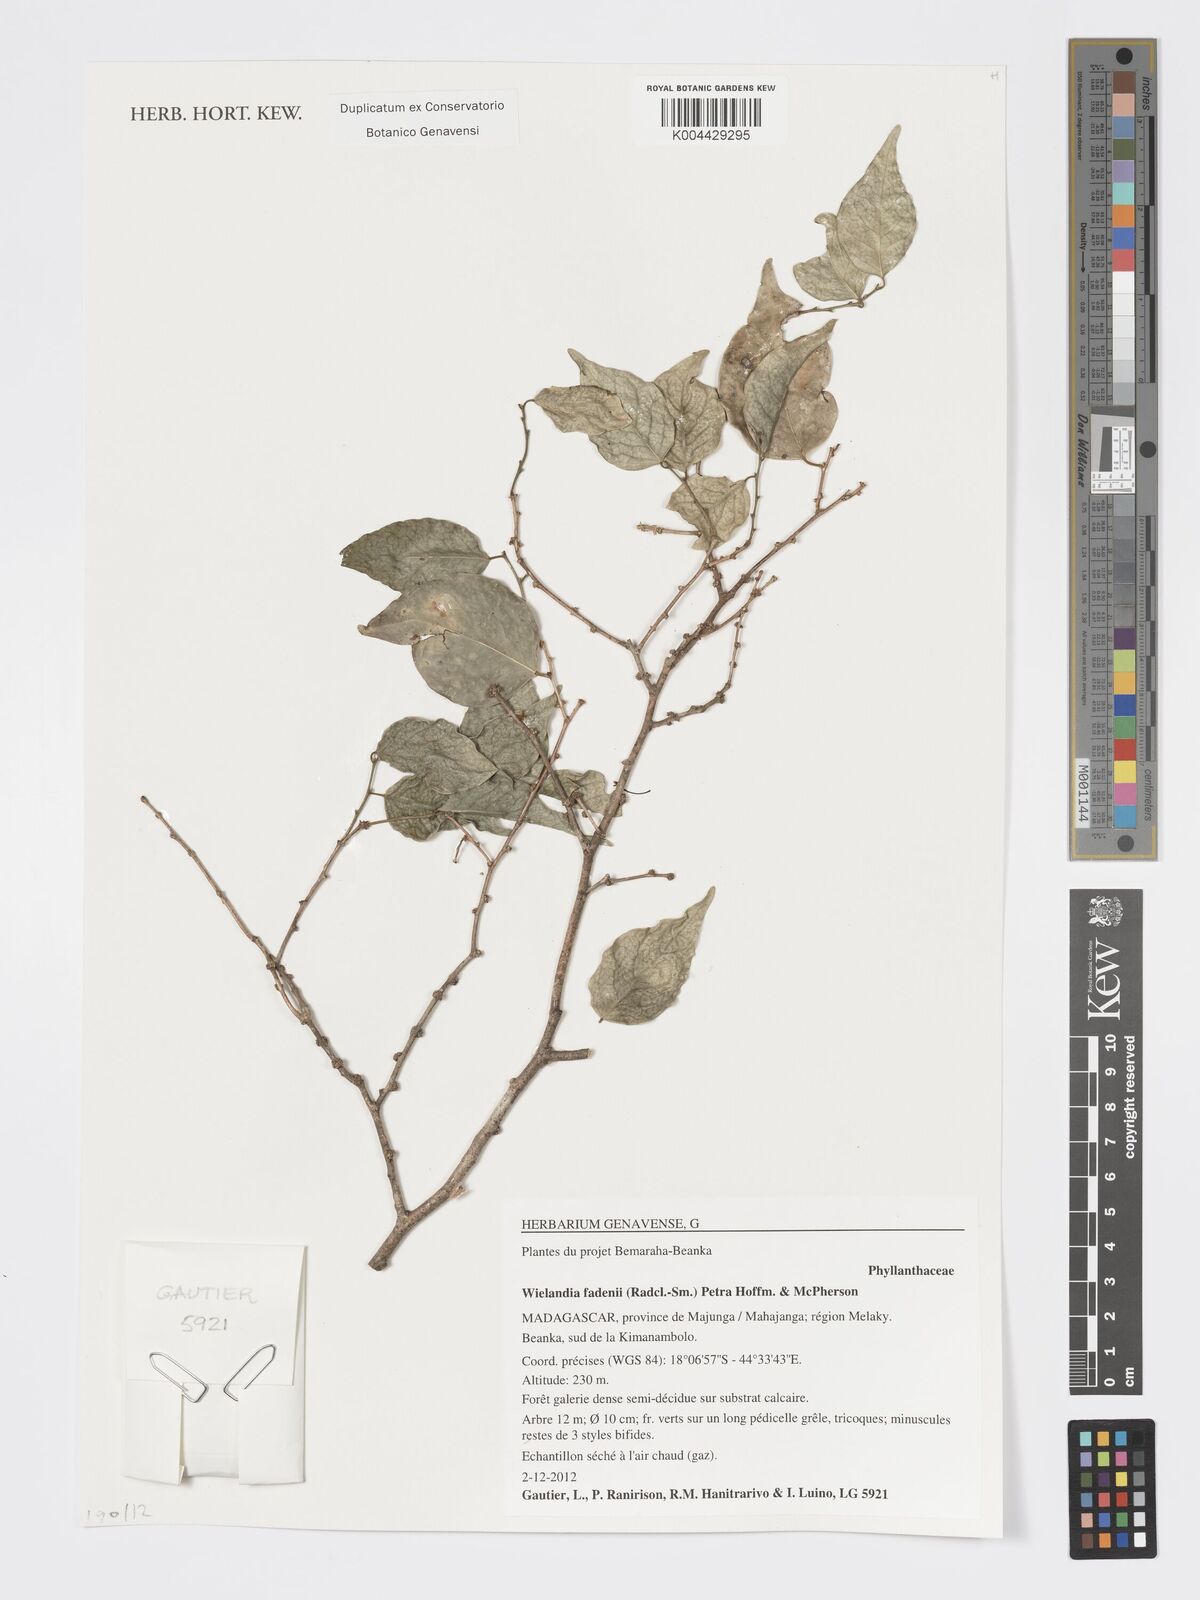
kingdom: Plantae
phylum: Tracheophyta
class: Magnoliopsida
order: Malpighiales
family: Phyllanthaceae
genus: Wielandia
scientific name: Wielandia fadenii
